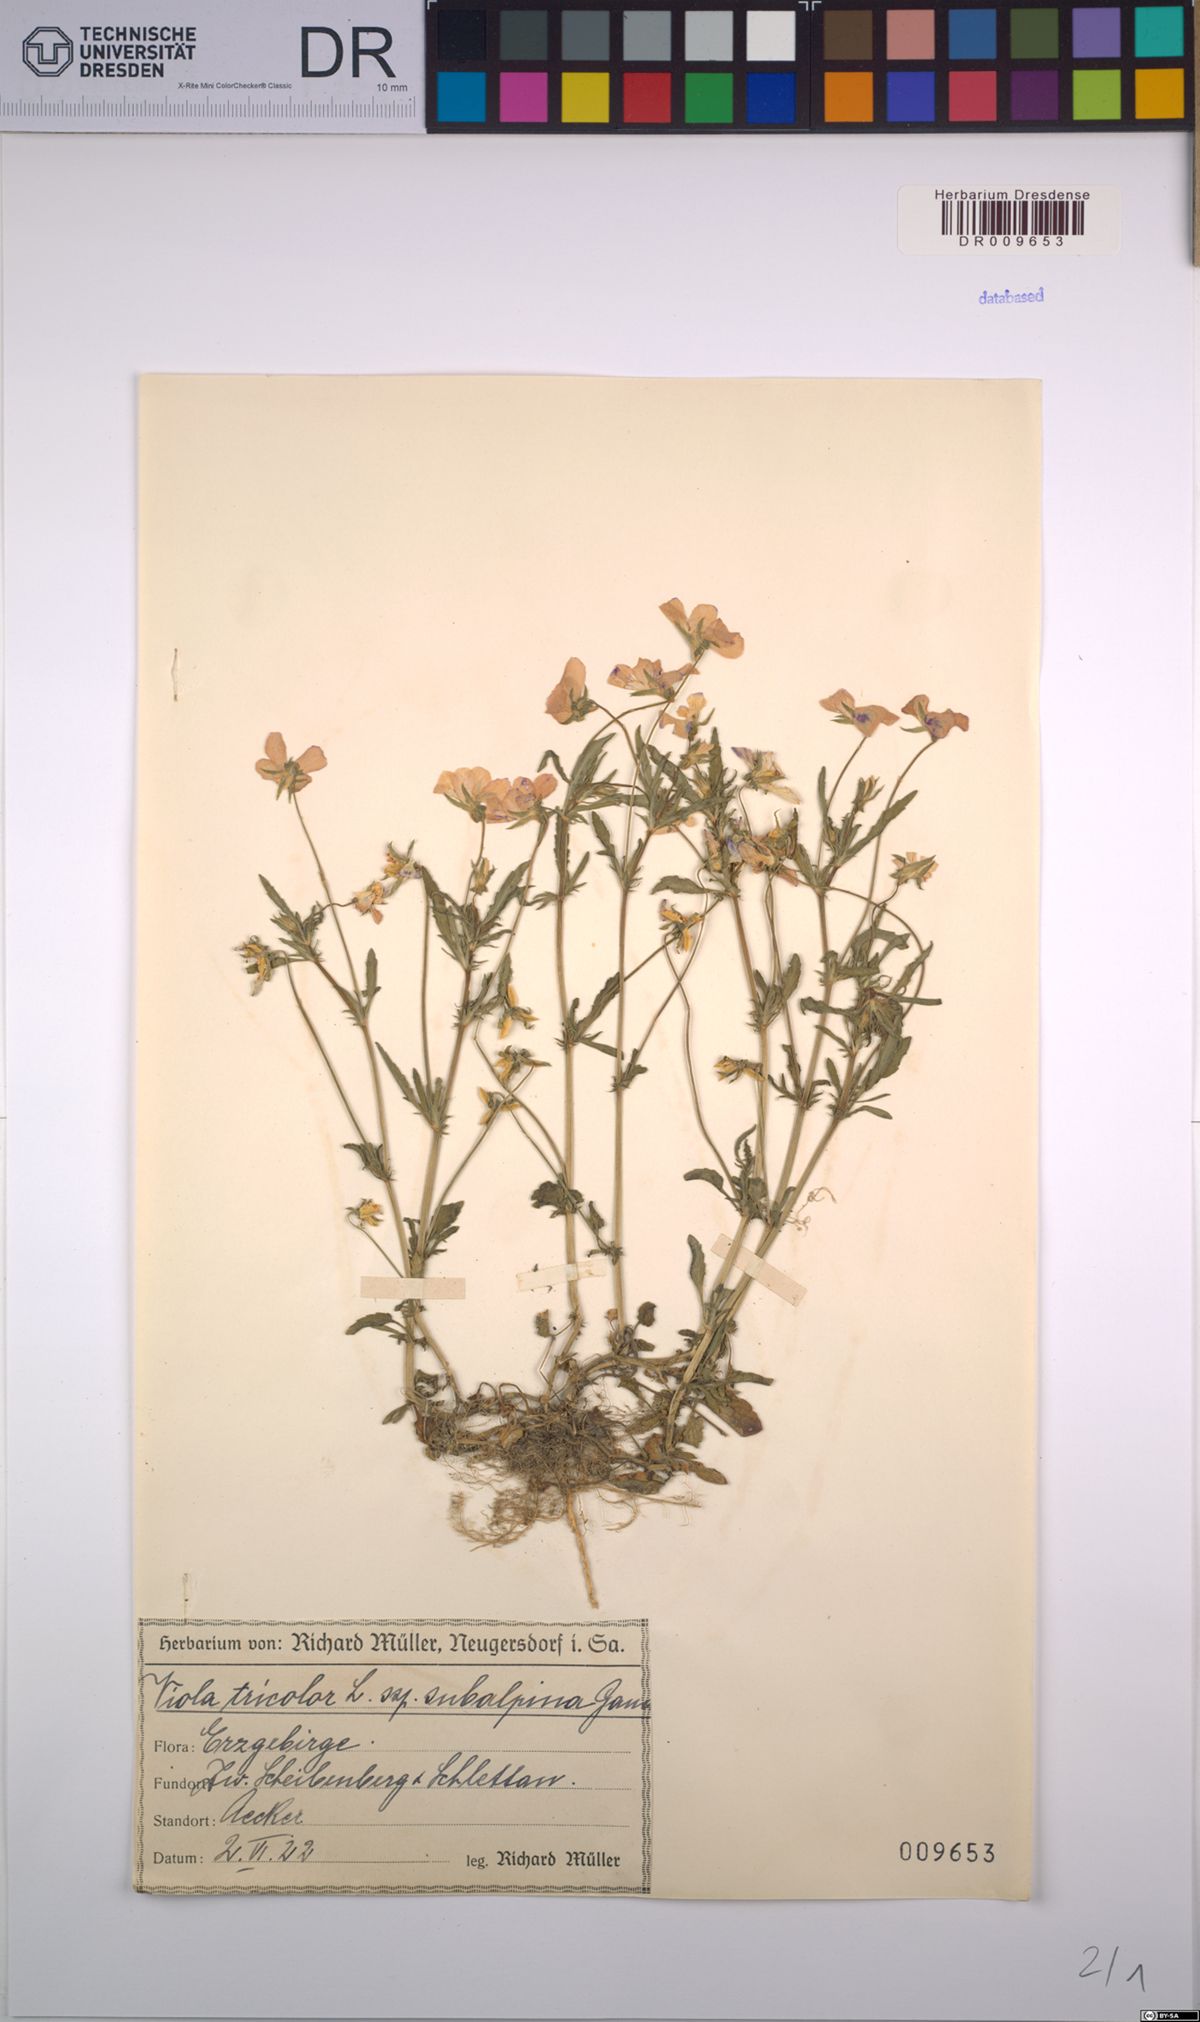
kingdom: Plantae
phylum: Tracheophyta
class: Magnoliopsida
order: Malpighiales
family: Violaceae
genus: Viola
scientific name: Viola tricolor
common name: Pansy
